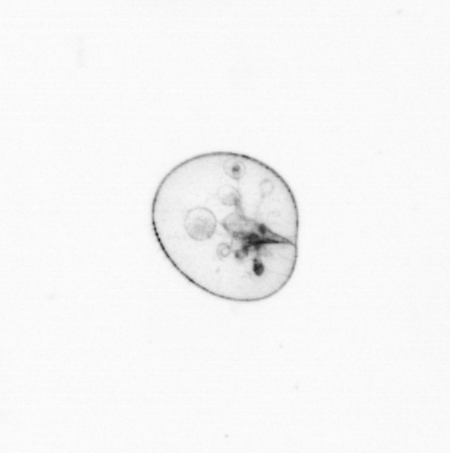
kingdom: Chromista
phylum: Myzozoa
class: Dinophyceae
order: Noctilucales
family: Noctilucaceae
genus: Noctiluca
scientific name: Noctiluca scintillans
